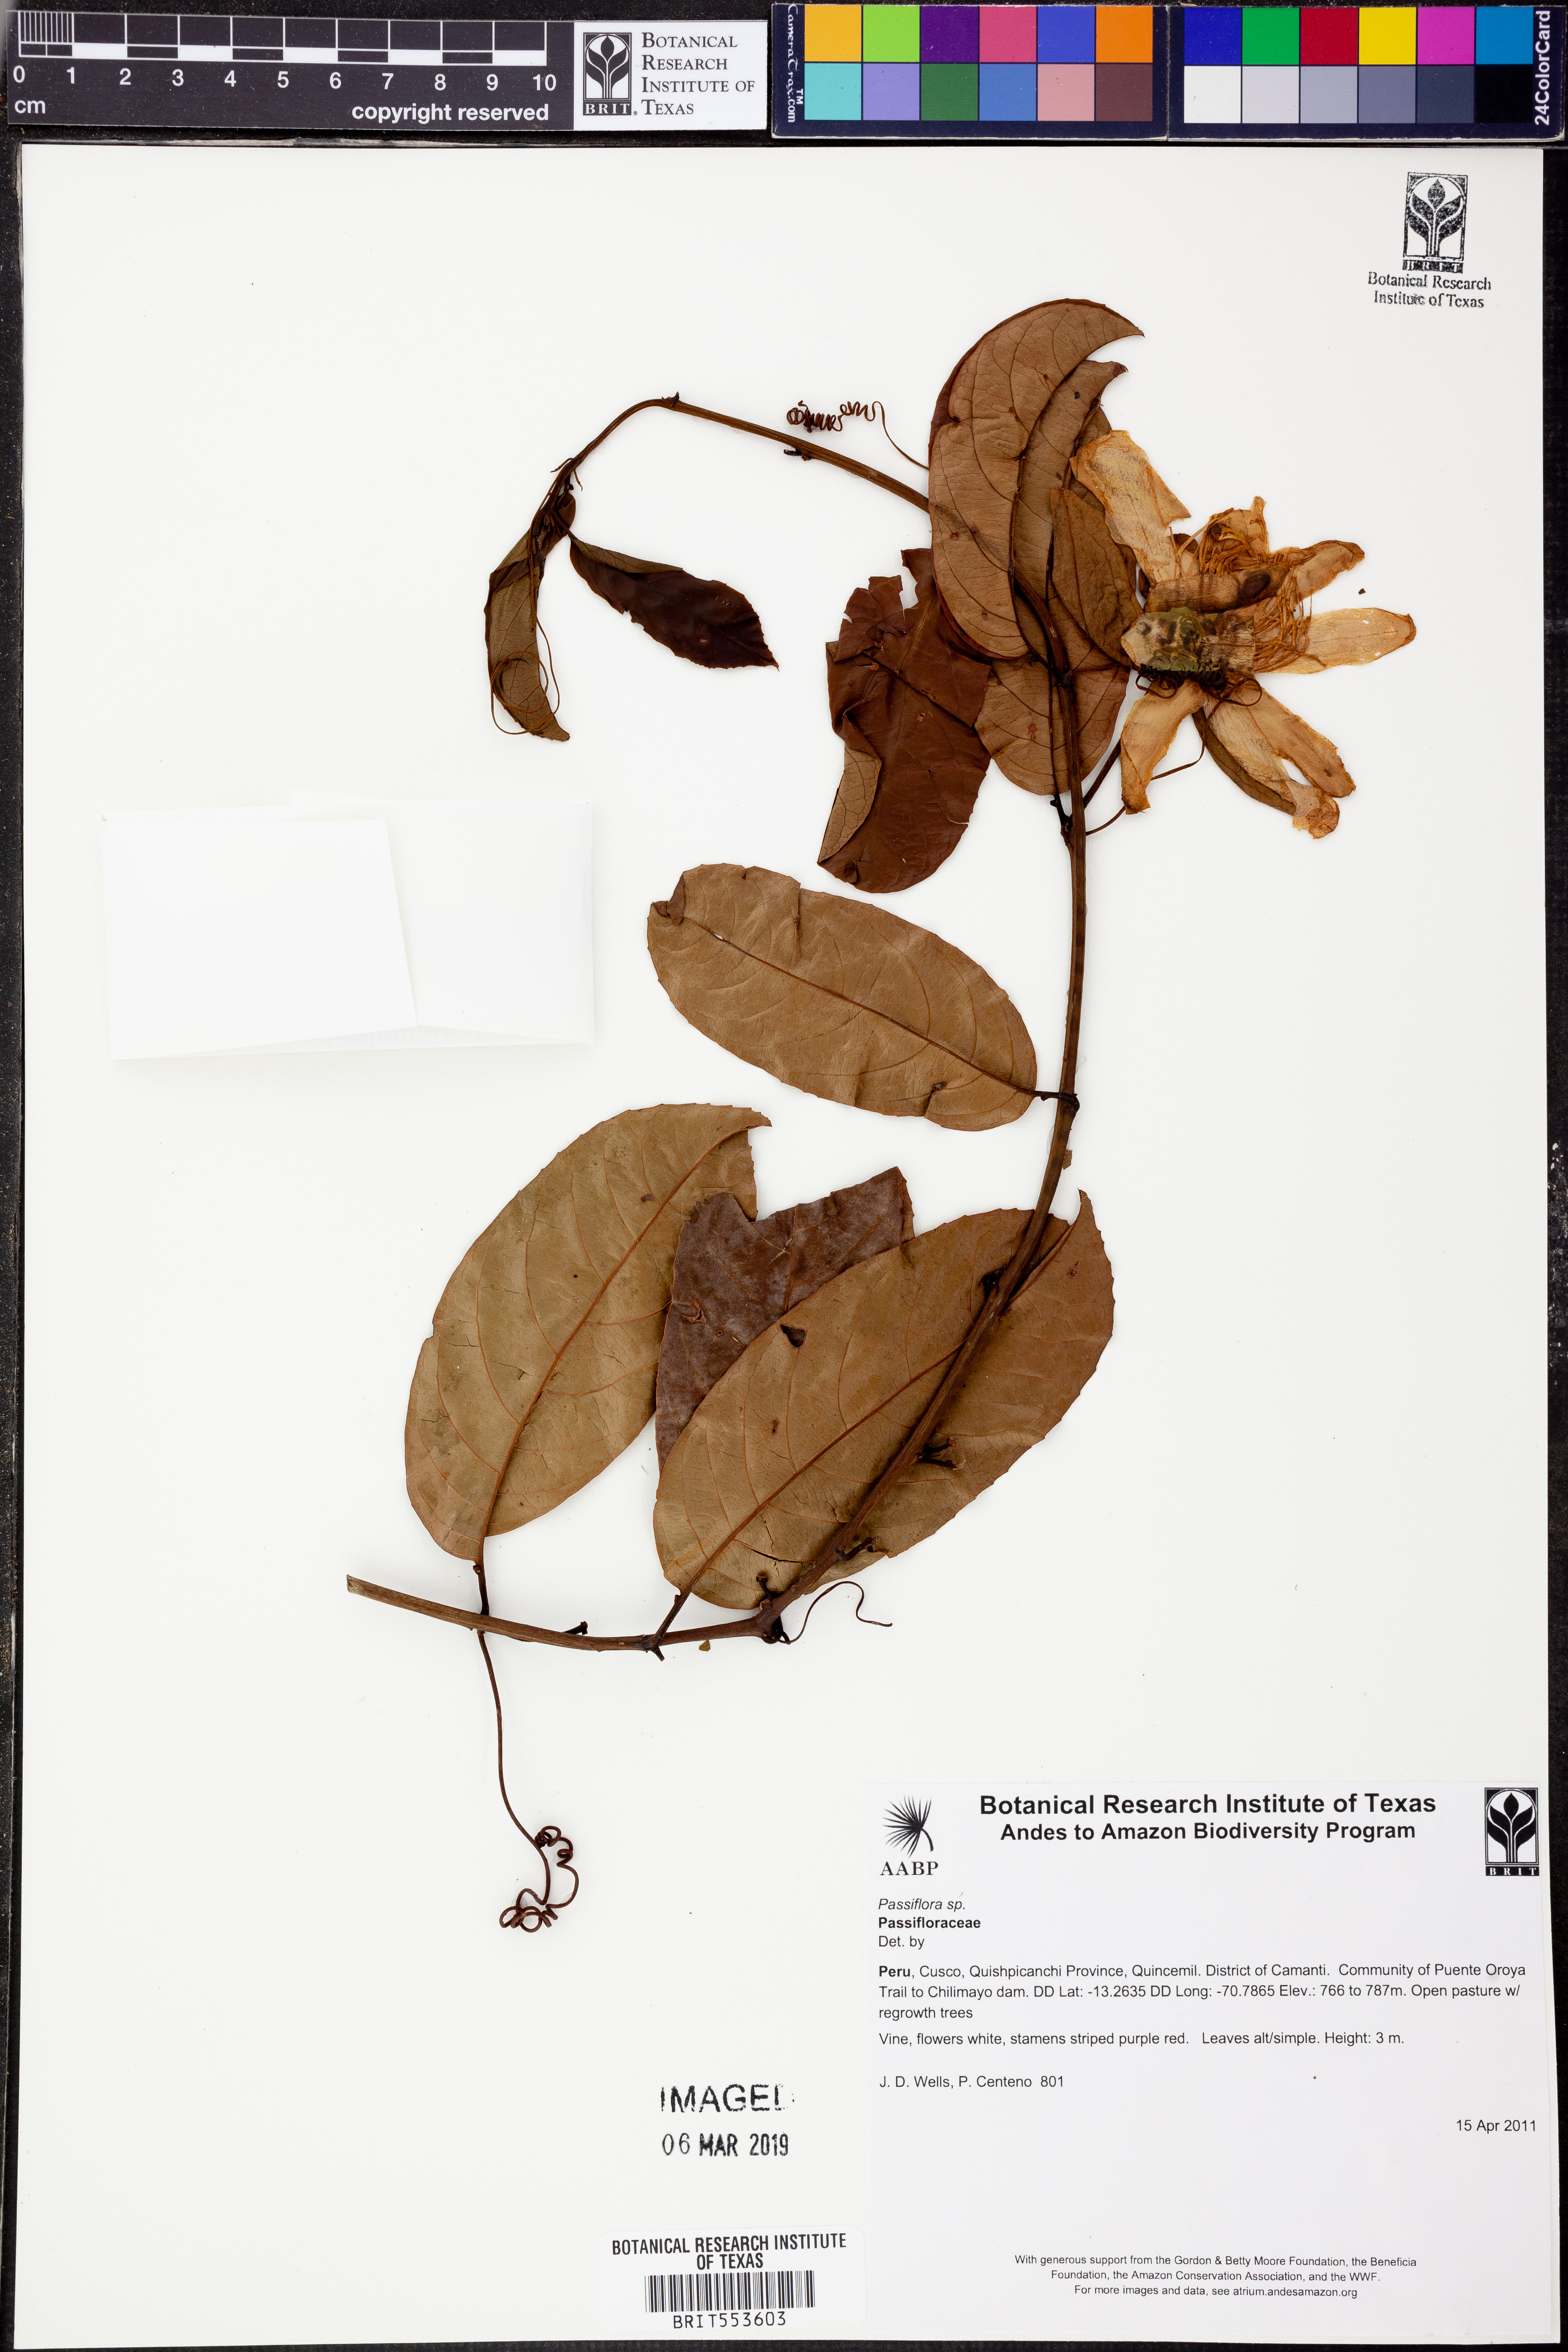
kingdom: Plantae
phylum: Tracheophyta
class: Magnoliopsida
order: Malpighiales
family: Passifloraceae
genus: Passiflora
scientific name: Passiflora
